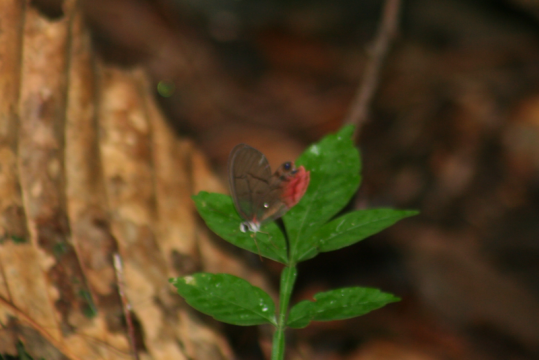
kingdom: Animalia
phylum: Arthropoda
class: Insecta
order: Lepidoptera
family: Nymphalidae
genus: Cithaerias
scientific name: Cithaerias pireta
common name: Rusted Clearwing-Satyr
